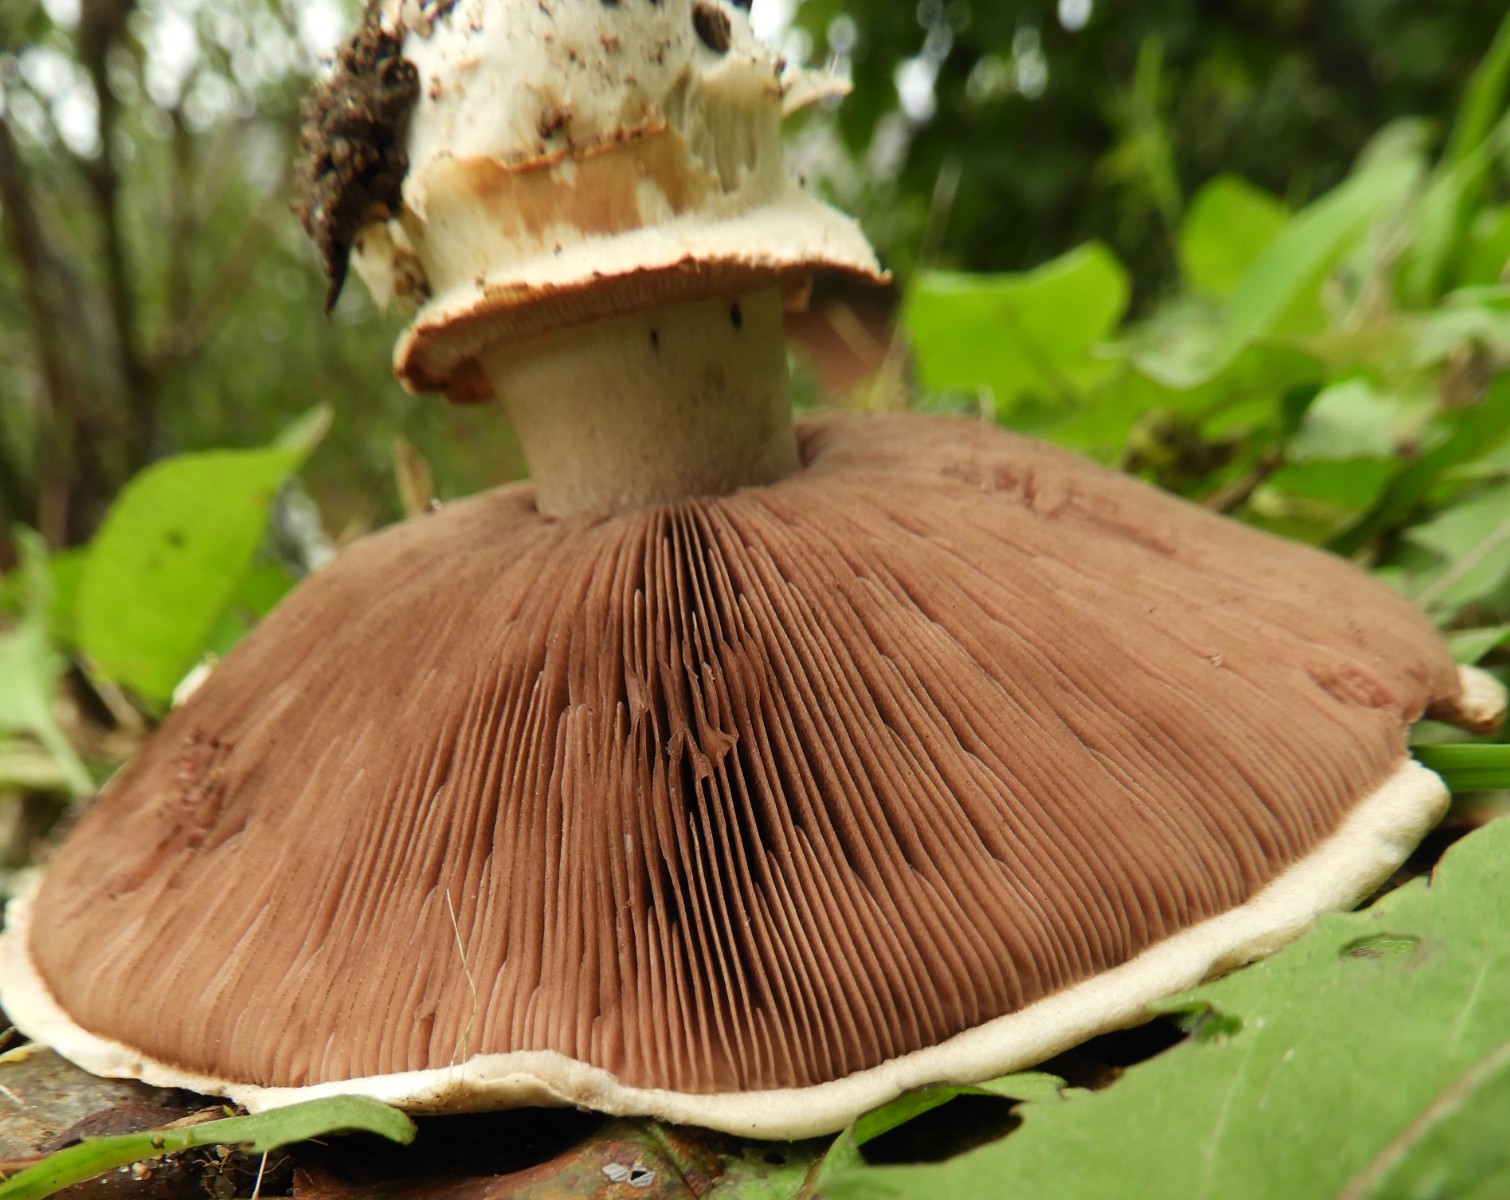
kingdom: Fungi
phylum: Basidiomycota
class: Agaricomycetes
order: Agaricales
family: Agaricaceae
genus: Agaricus
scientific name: Agaricus bitorquis
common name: vej-champignon
